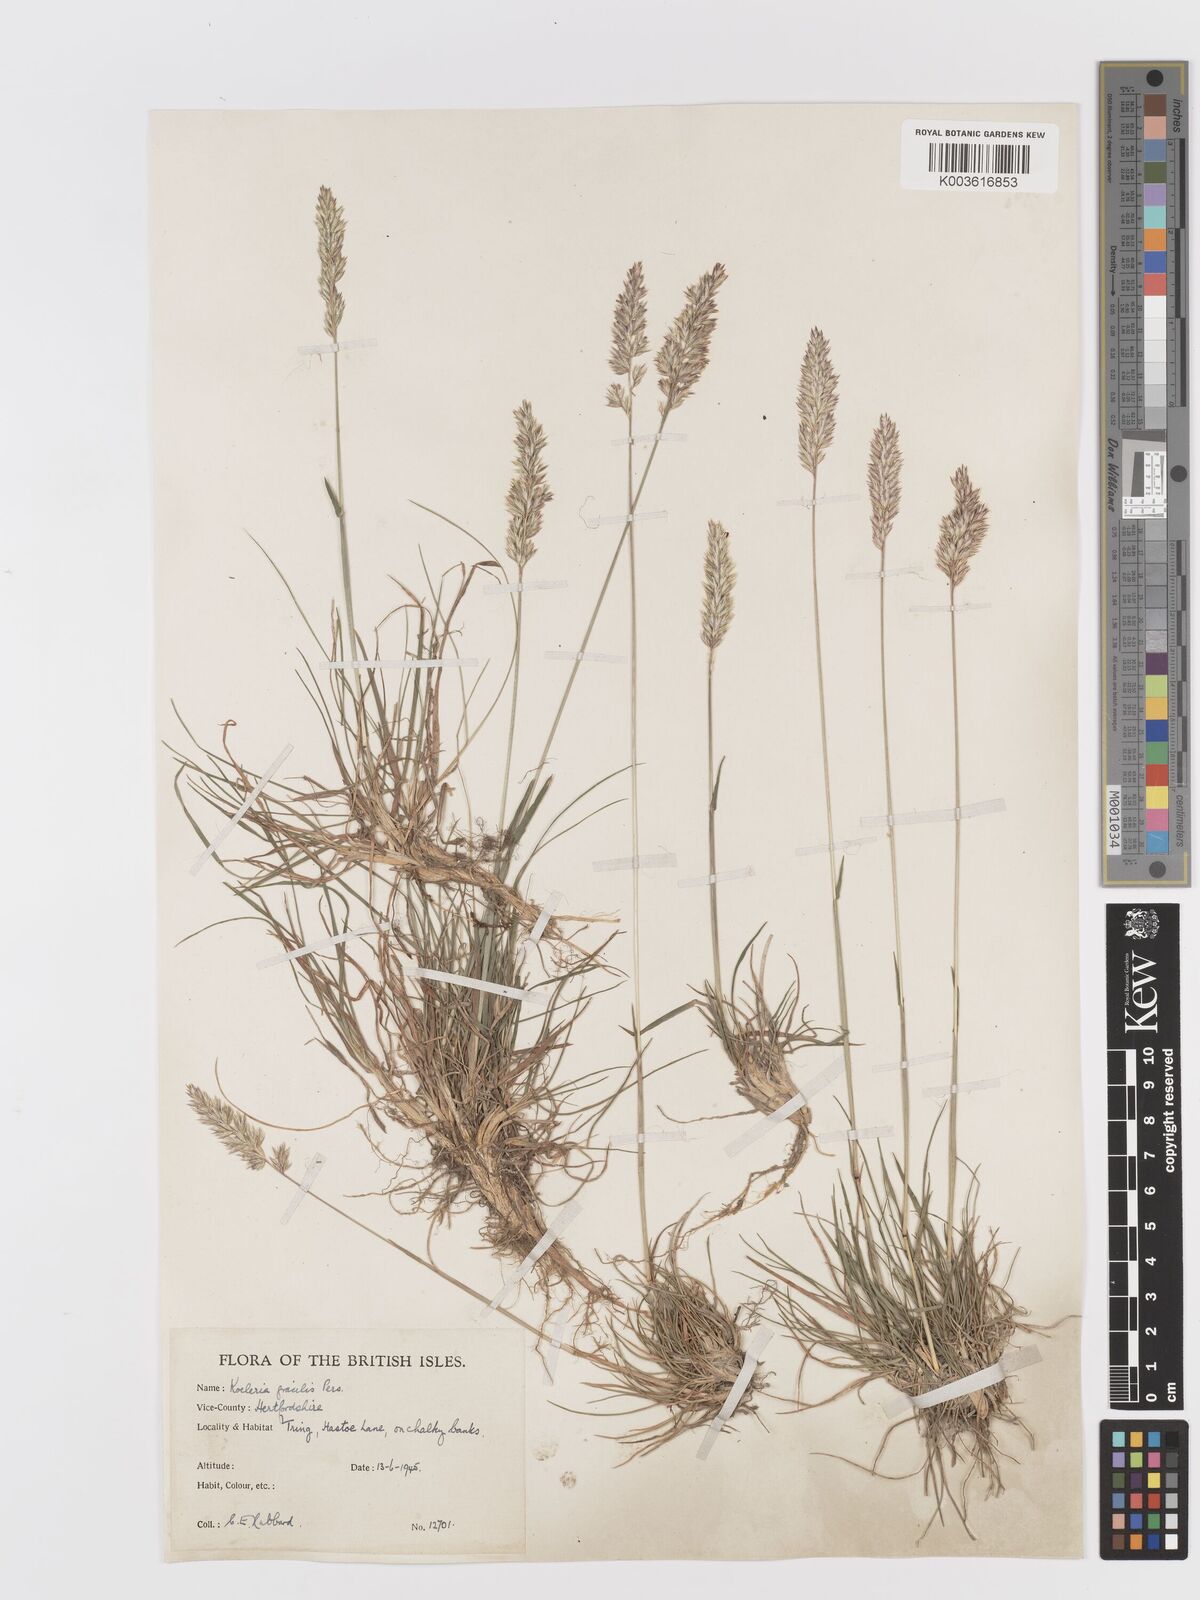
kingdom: Plantae
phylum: Tracheophyta
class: Liliopsida
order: Poales
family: Poaceae
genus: Koeleria
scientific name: Koeleria macrantha
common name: Crested hair-grass
